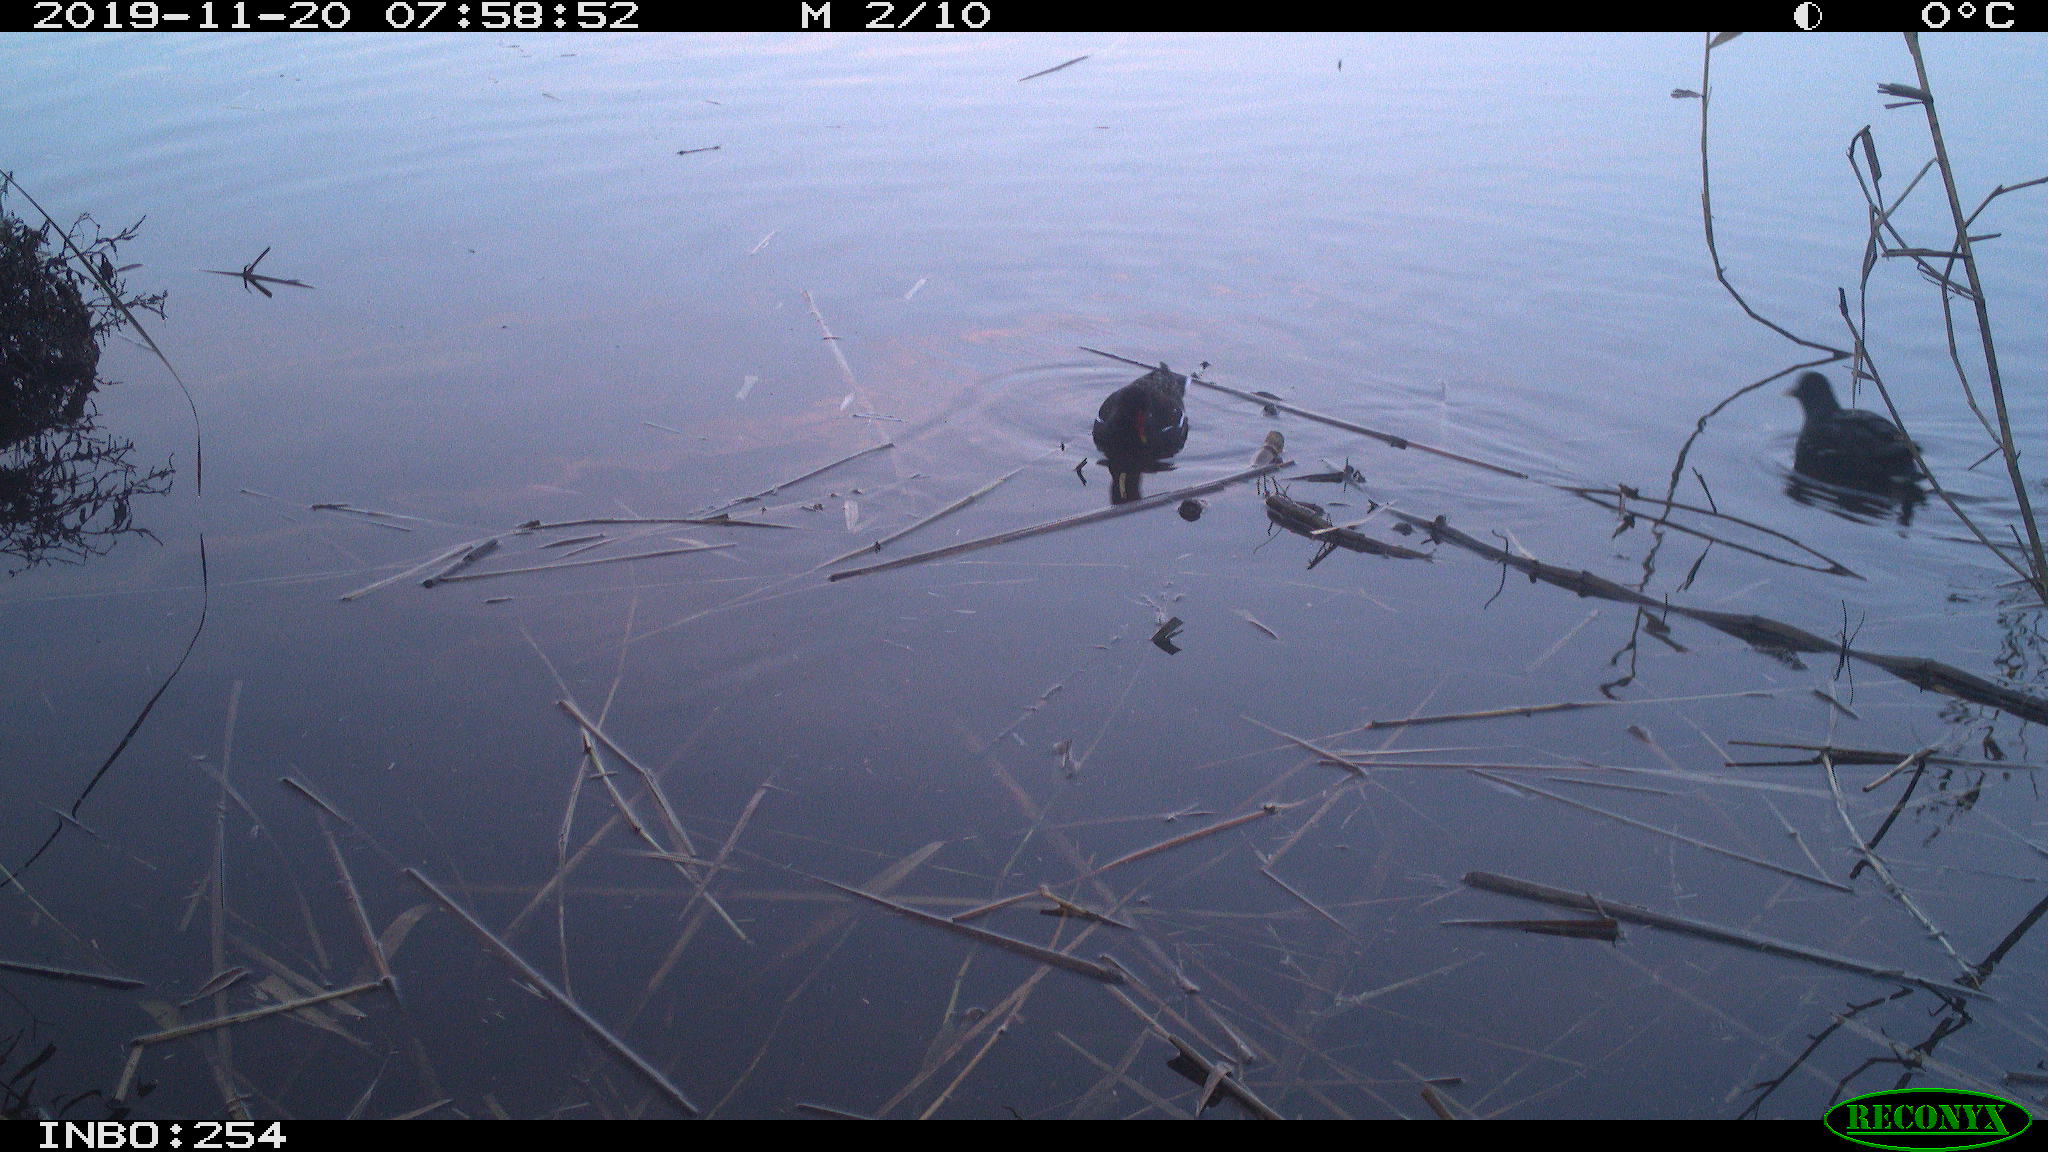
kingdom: Animalia
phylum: Chordata
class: Aves
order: Gruiformes
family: Rallidae
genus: Gallinula
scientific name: Gallinula chloropus
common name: Common moorhen
